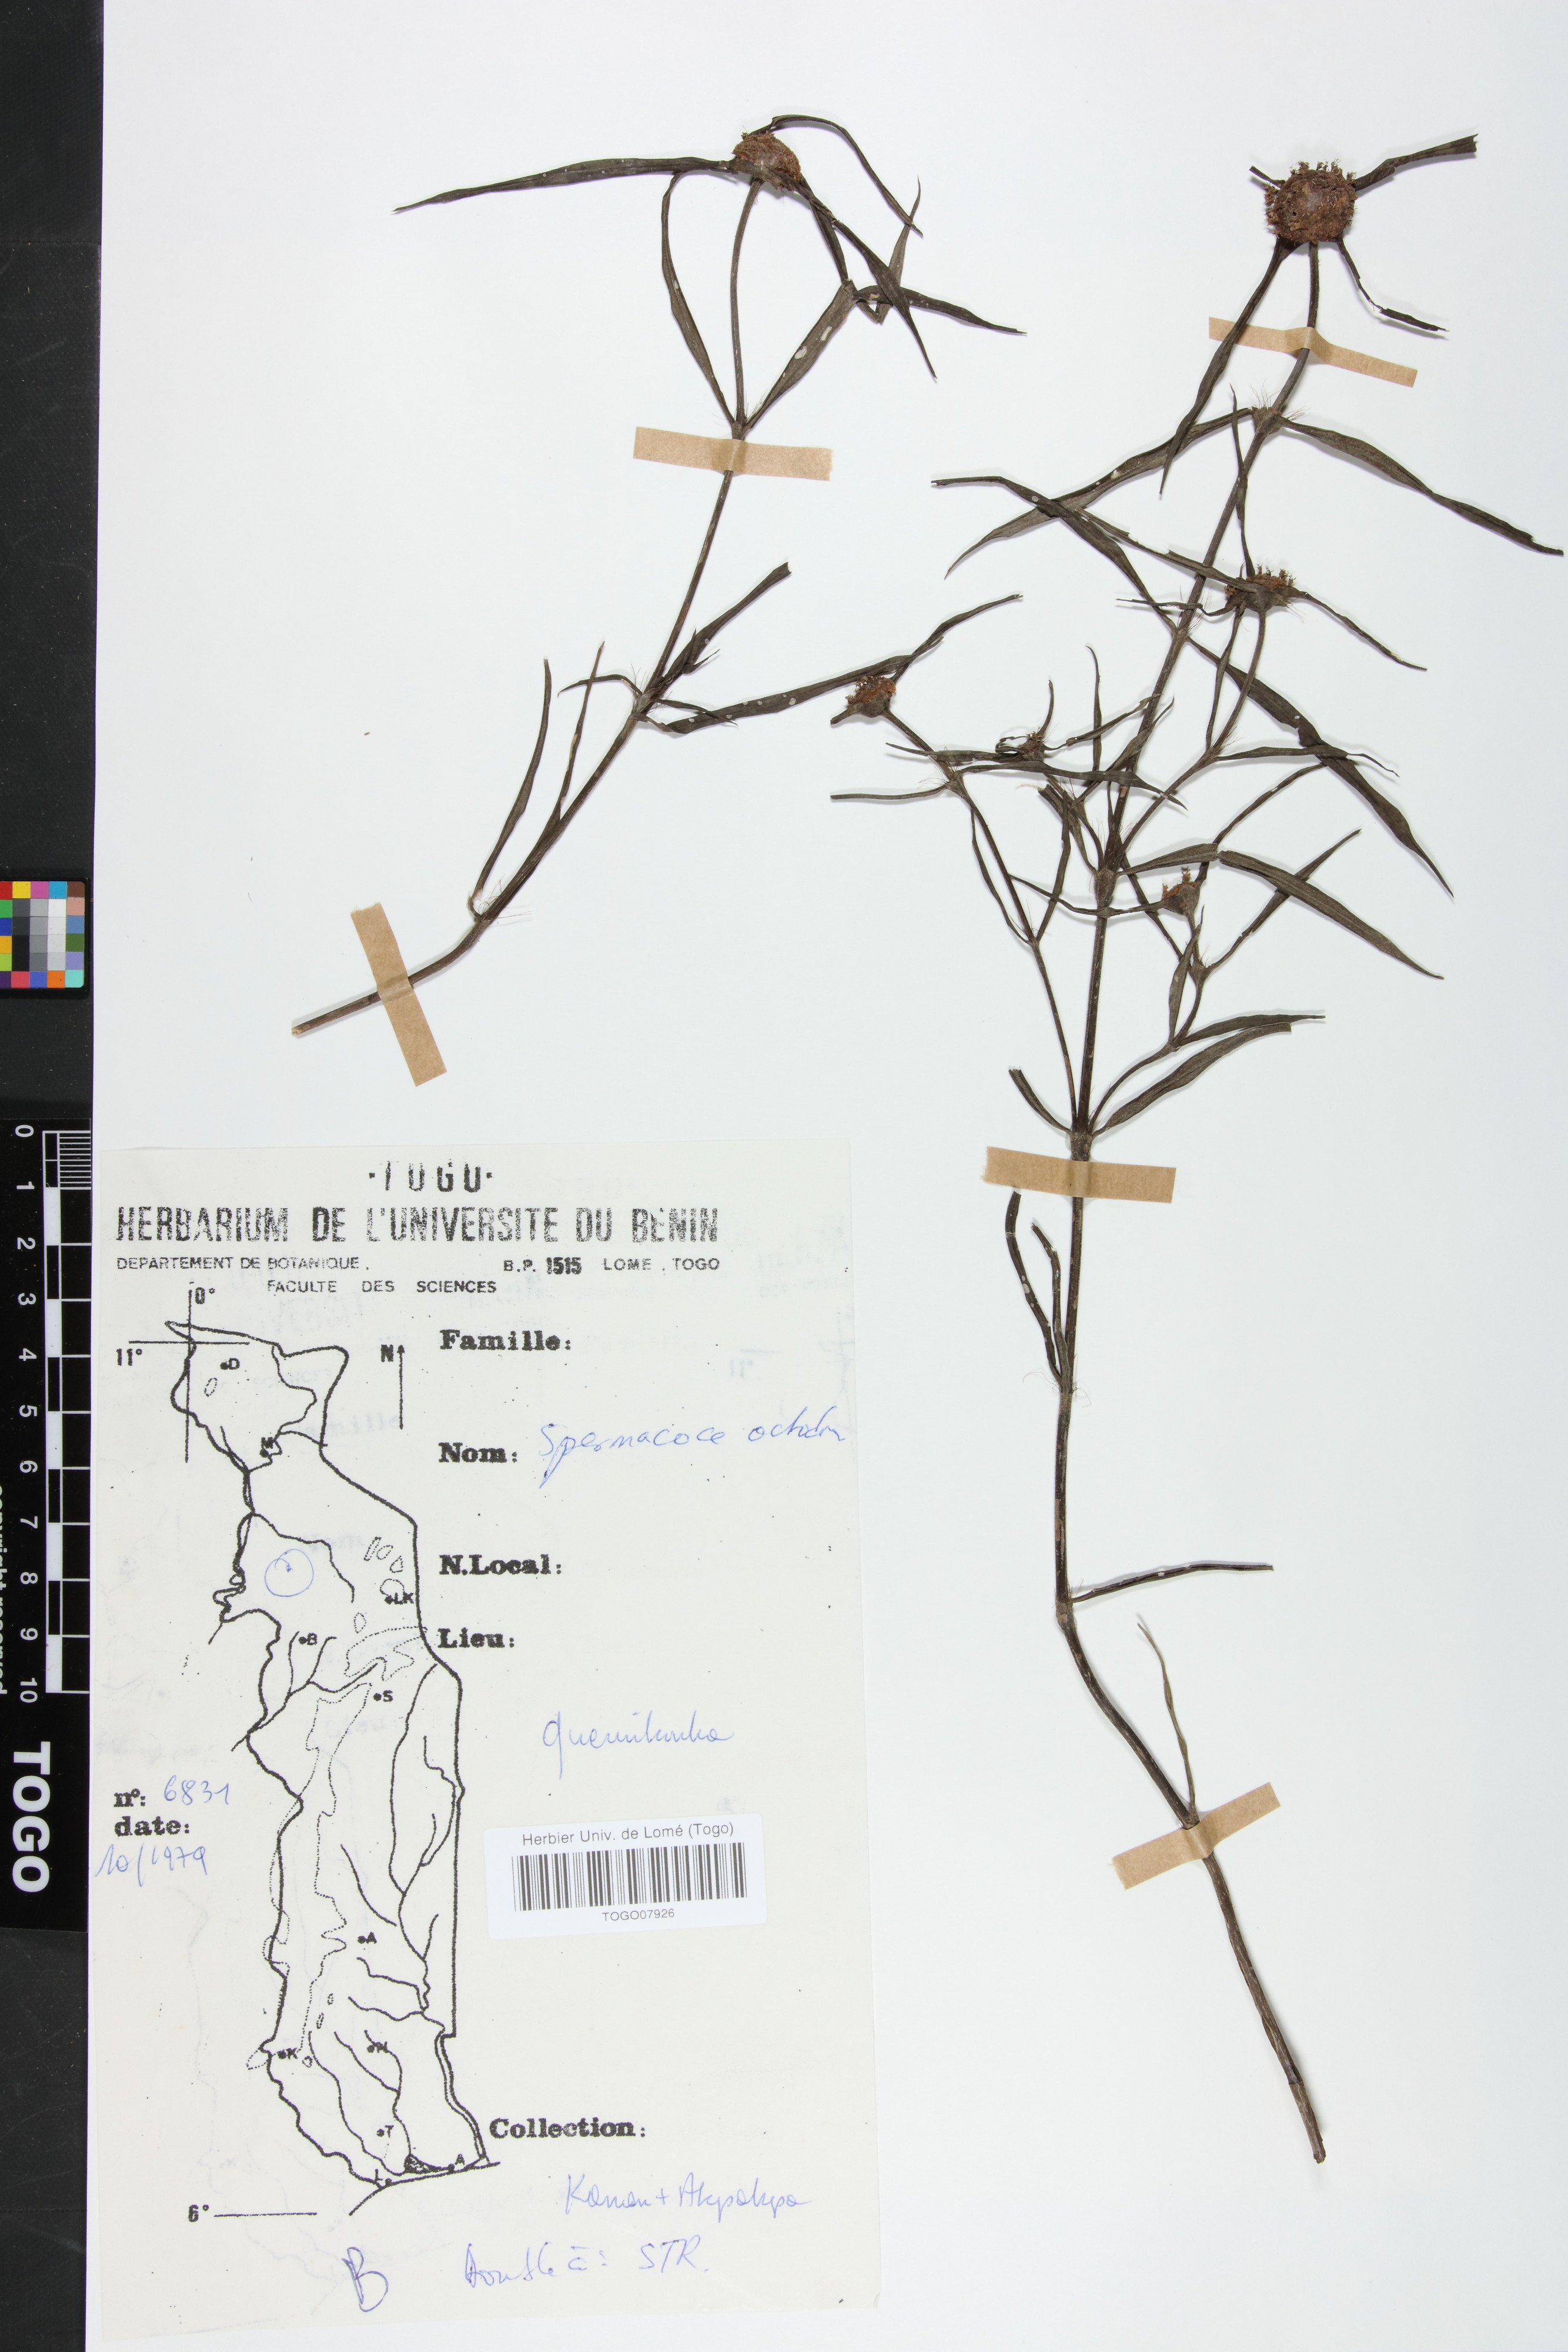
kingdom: Plantae
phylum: Tracheophyta
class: Magnoliopsida
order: Gentianales
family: Rubiaceae
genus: Spermacoce
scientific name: Spermacoce octodon
